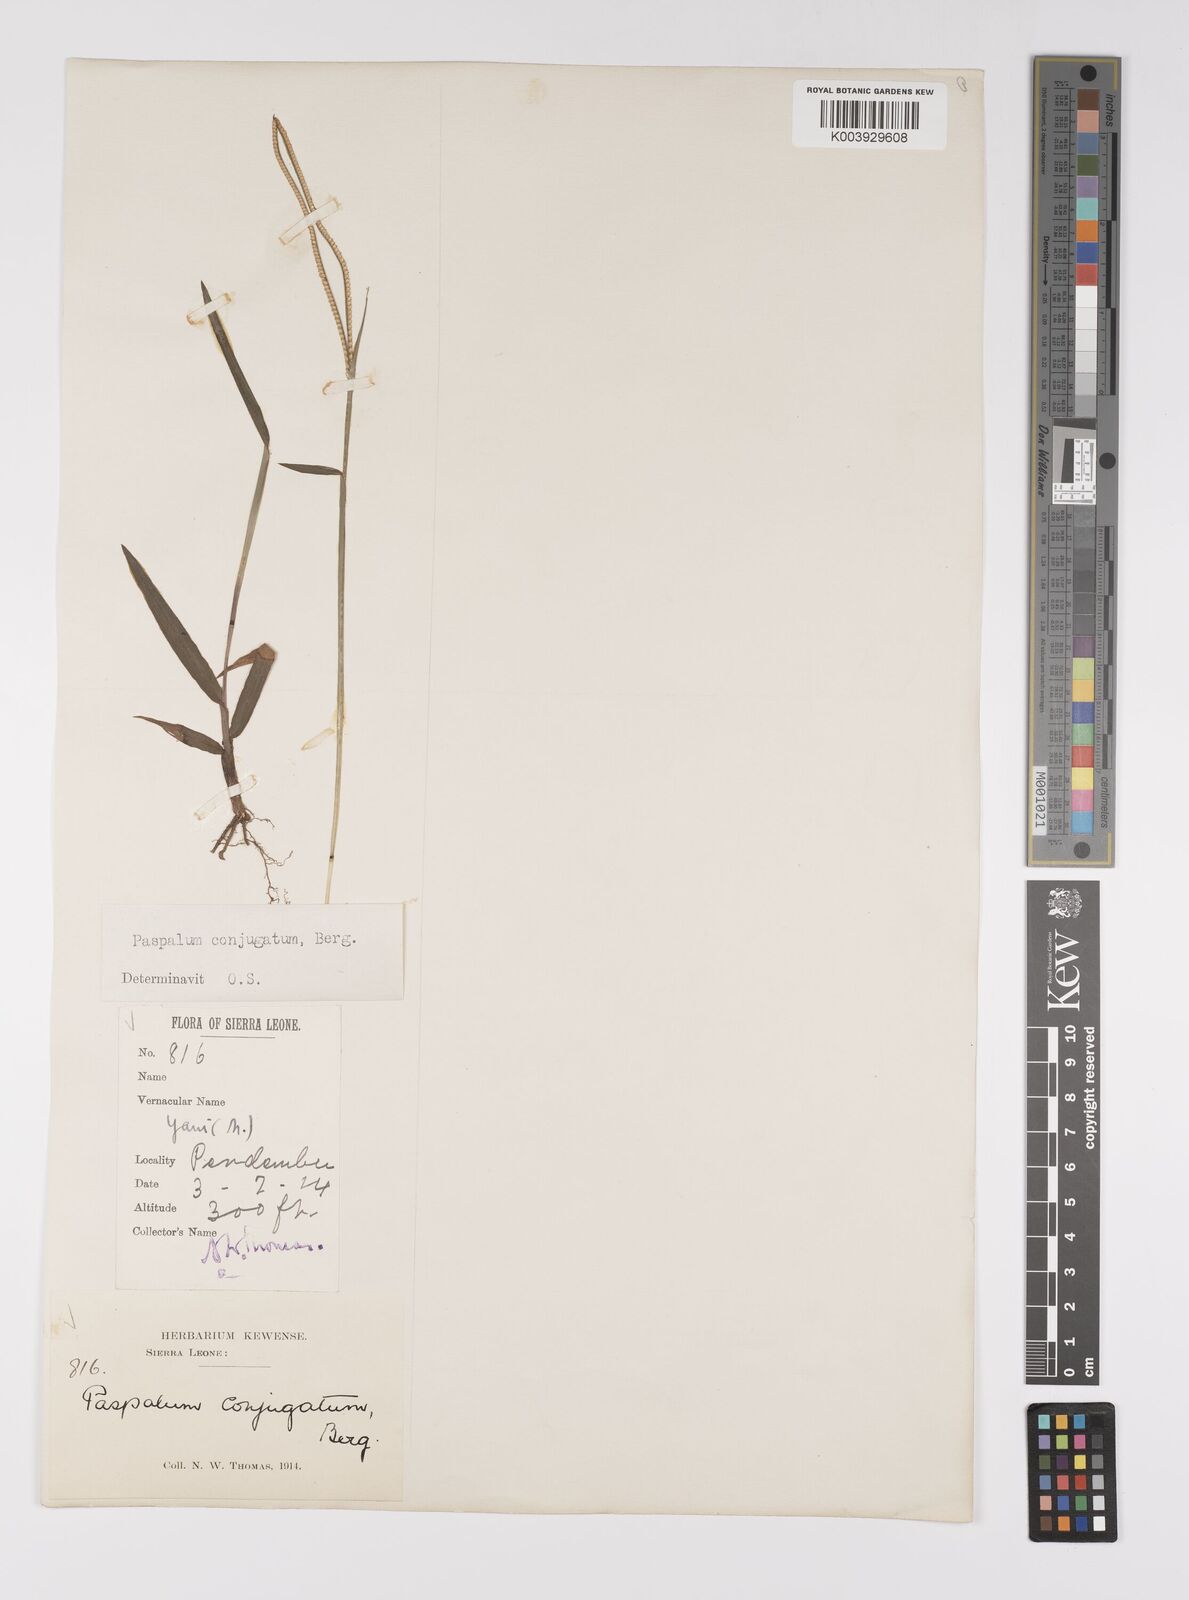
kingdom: Plantae
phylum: Tracheophyta
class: Liliopsida
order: Poales
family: Poaceae
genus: Paspalum
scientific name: Paspalum conjugatum
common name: Hilograss
